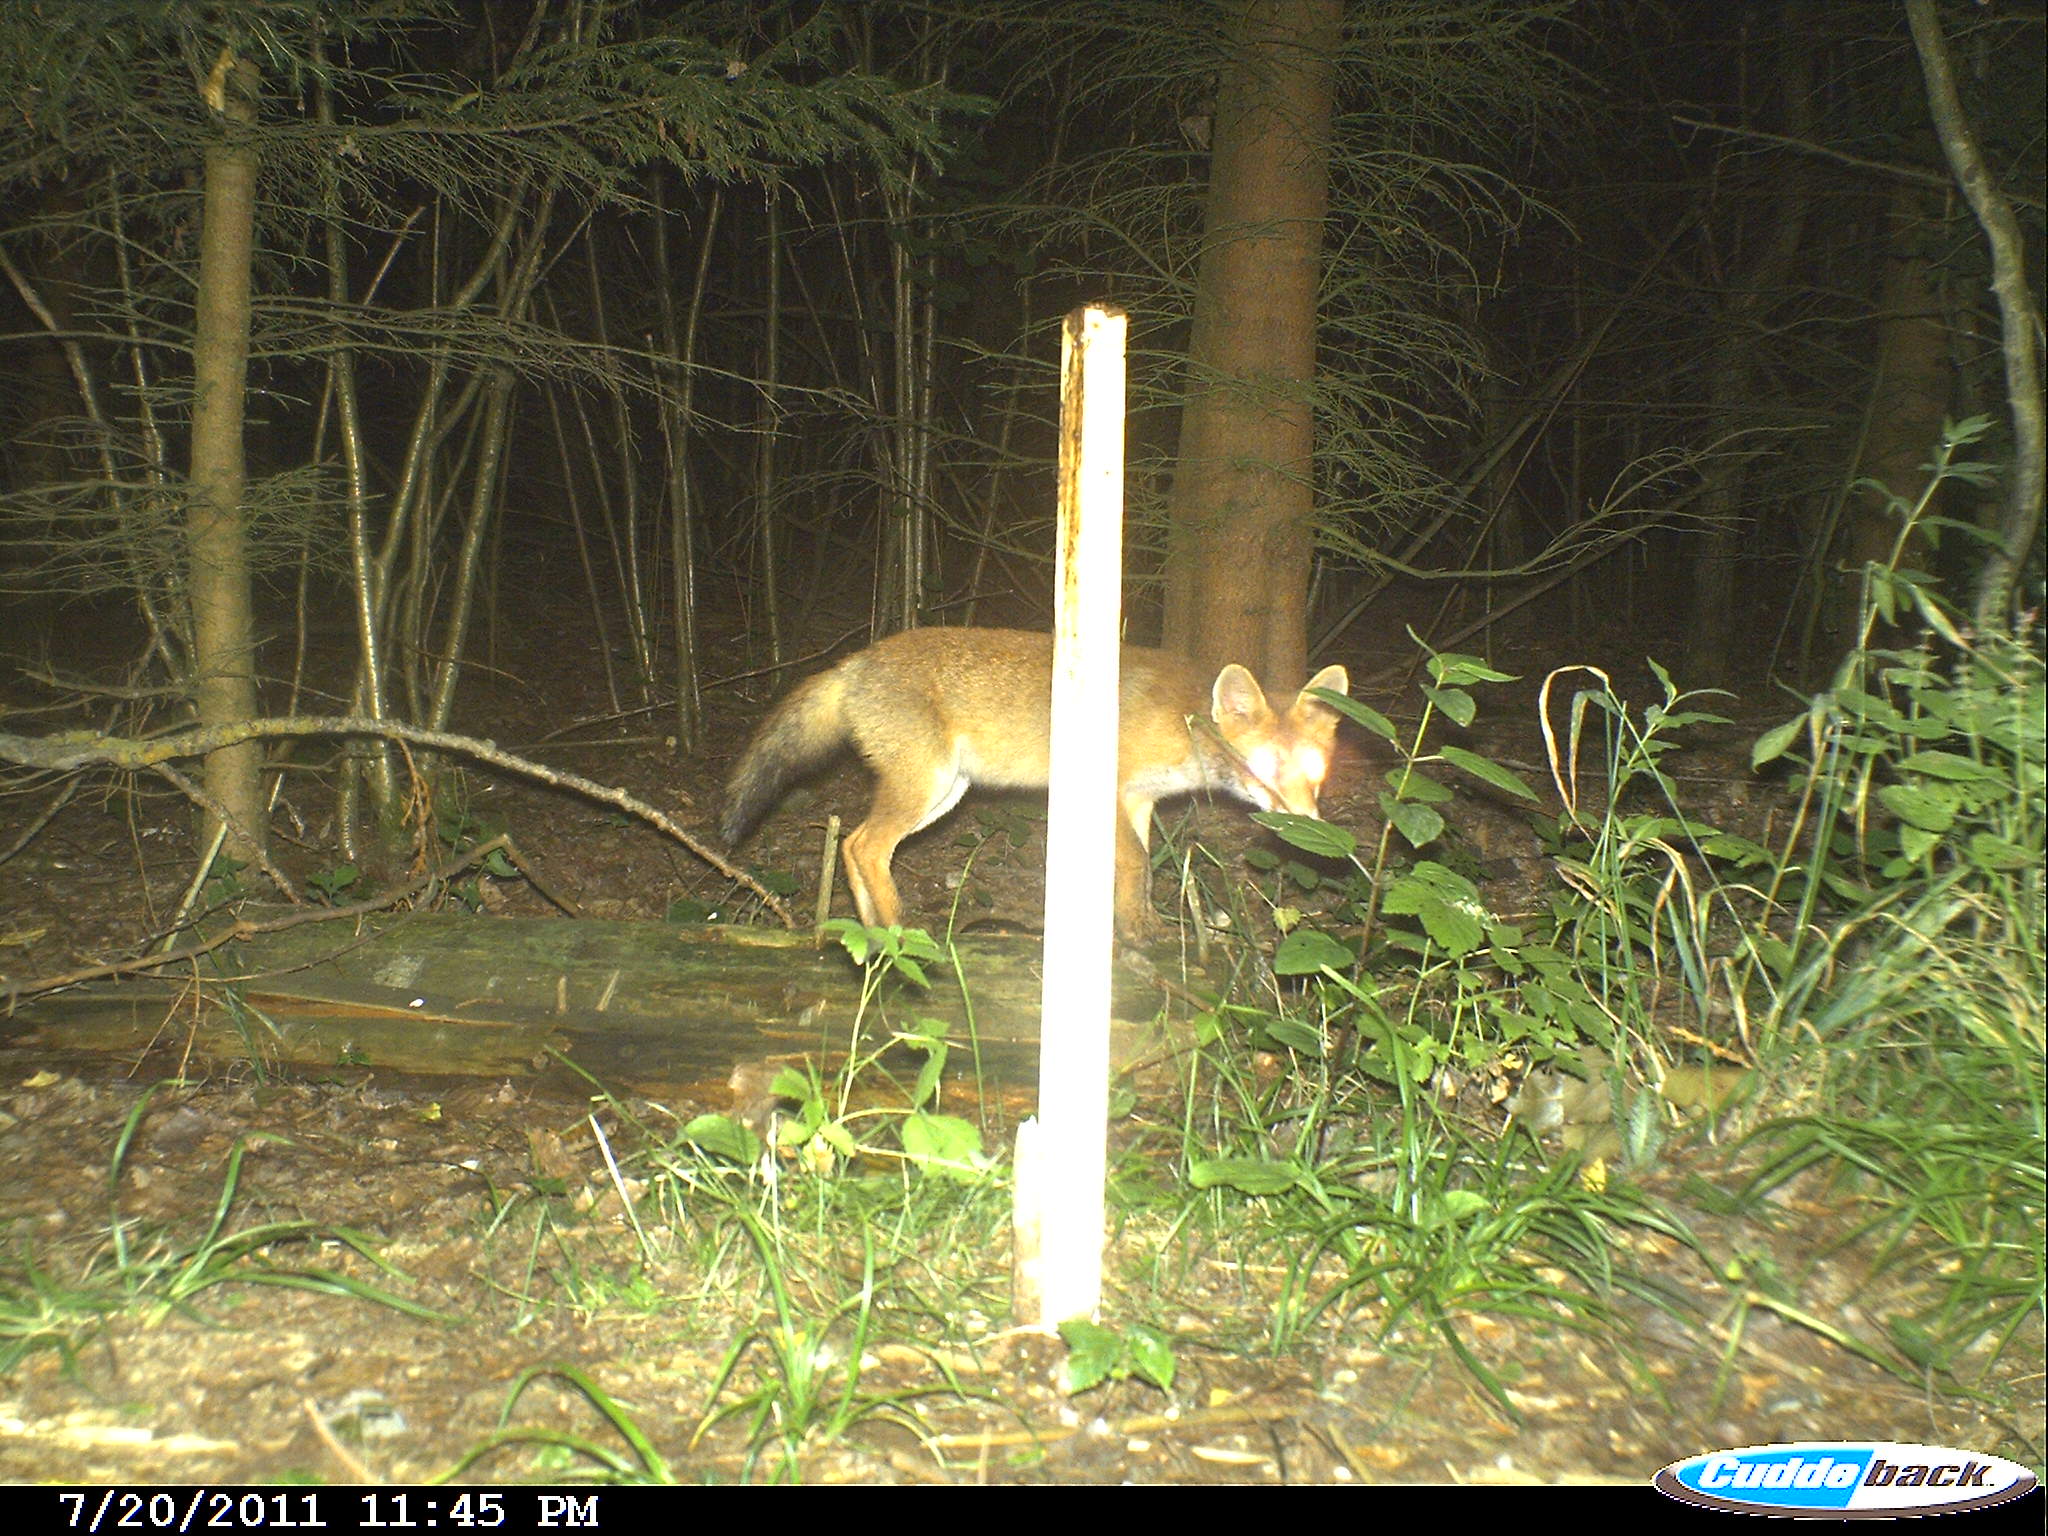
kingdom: Animalia
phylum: Chordata
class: Mammalia
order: Carnivora
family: Canidae
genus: Vulpes
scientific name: Vulpes vulpes
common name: Red fox
